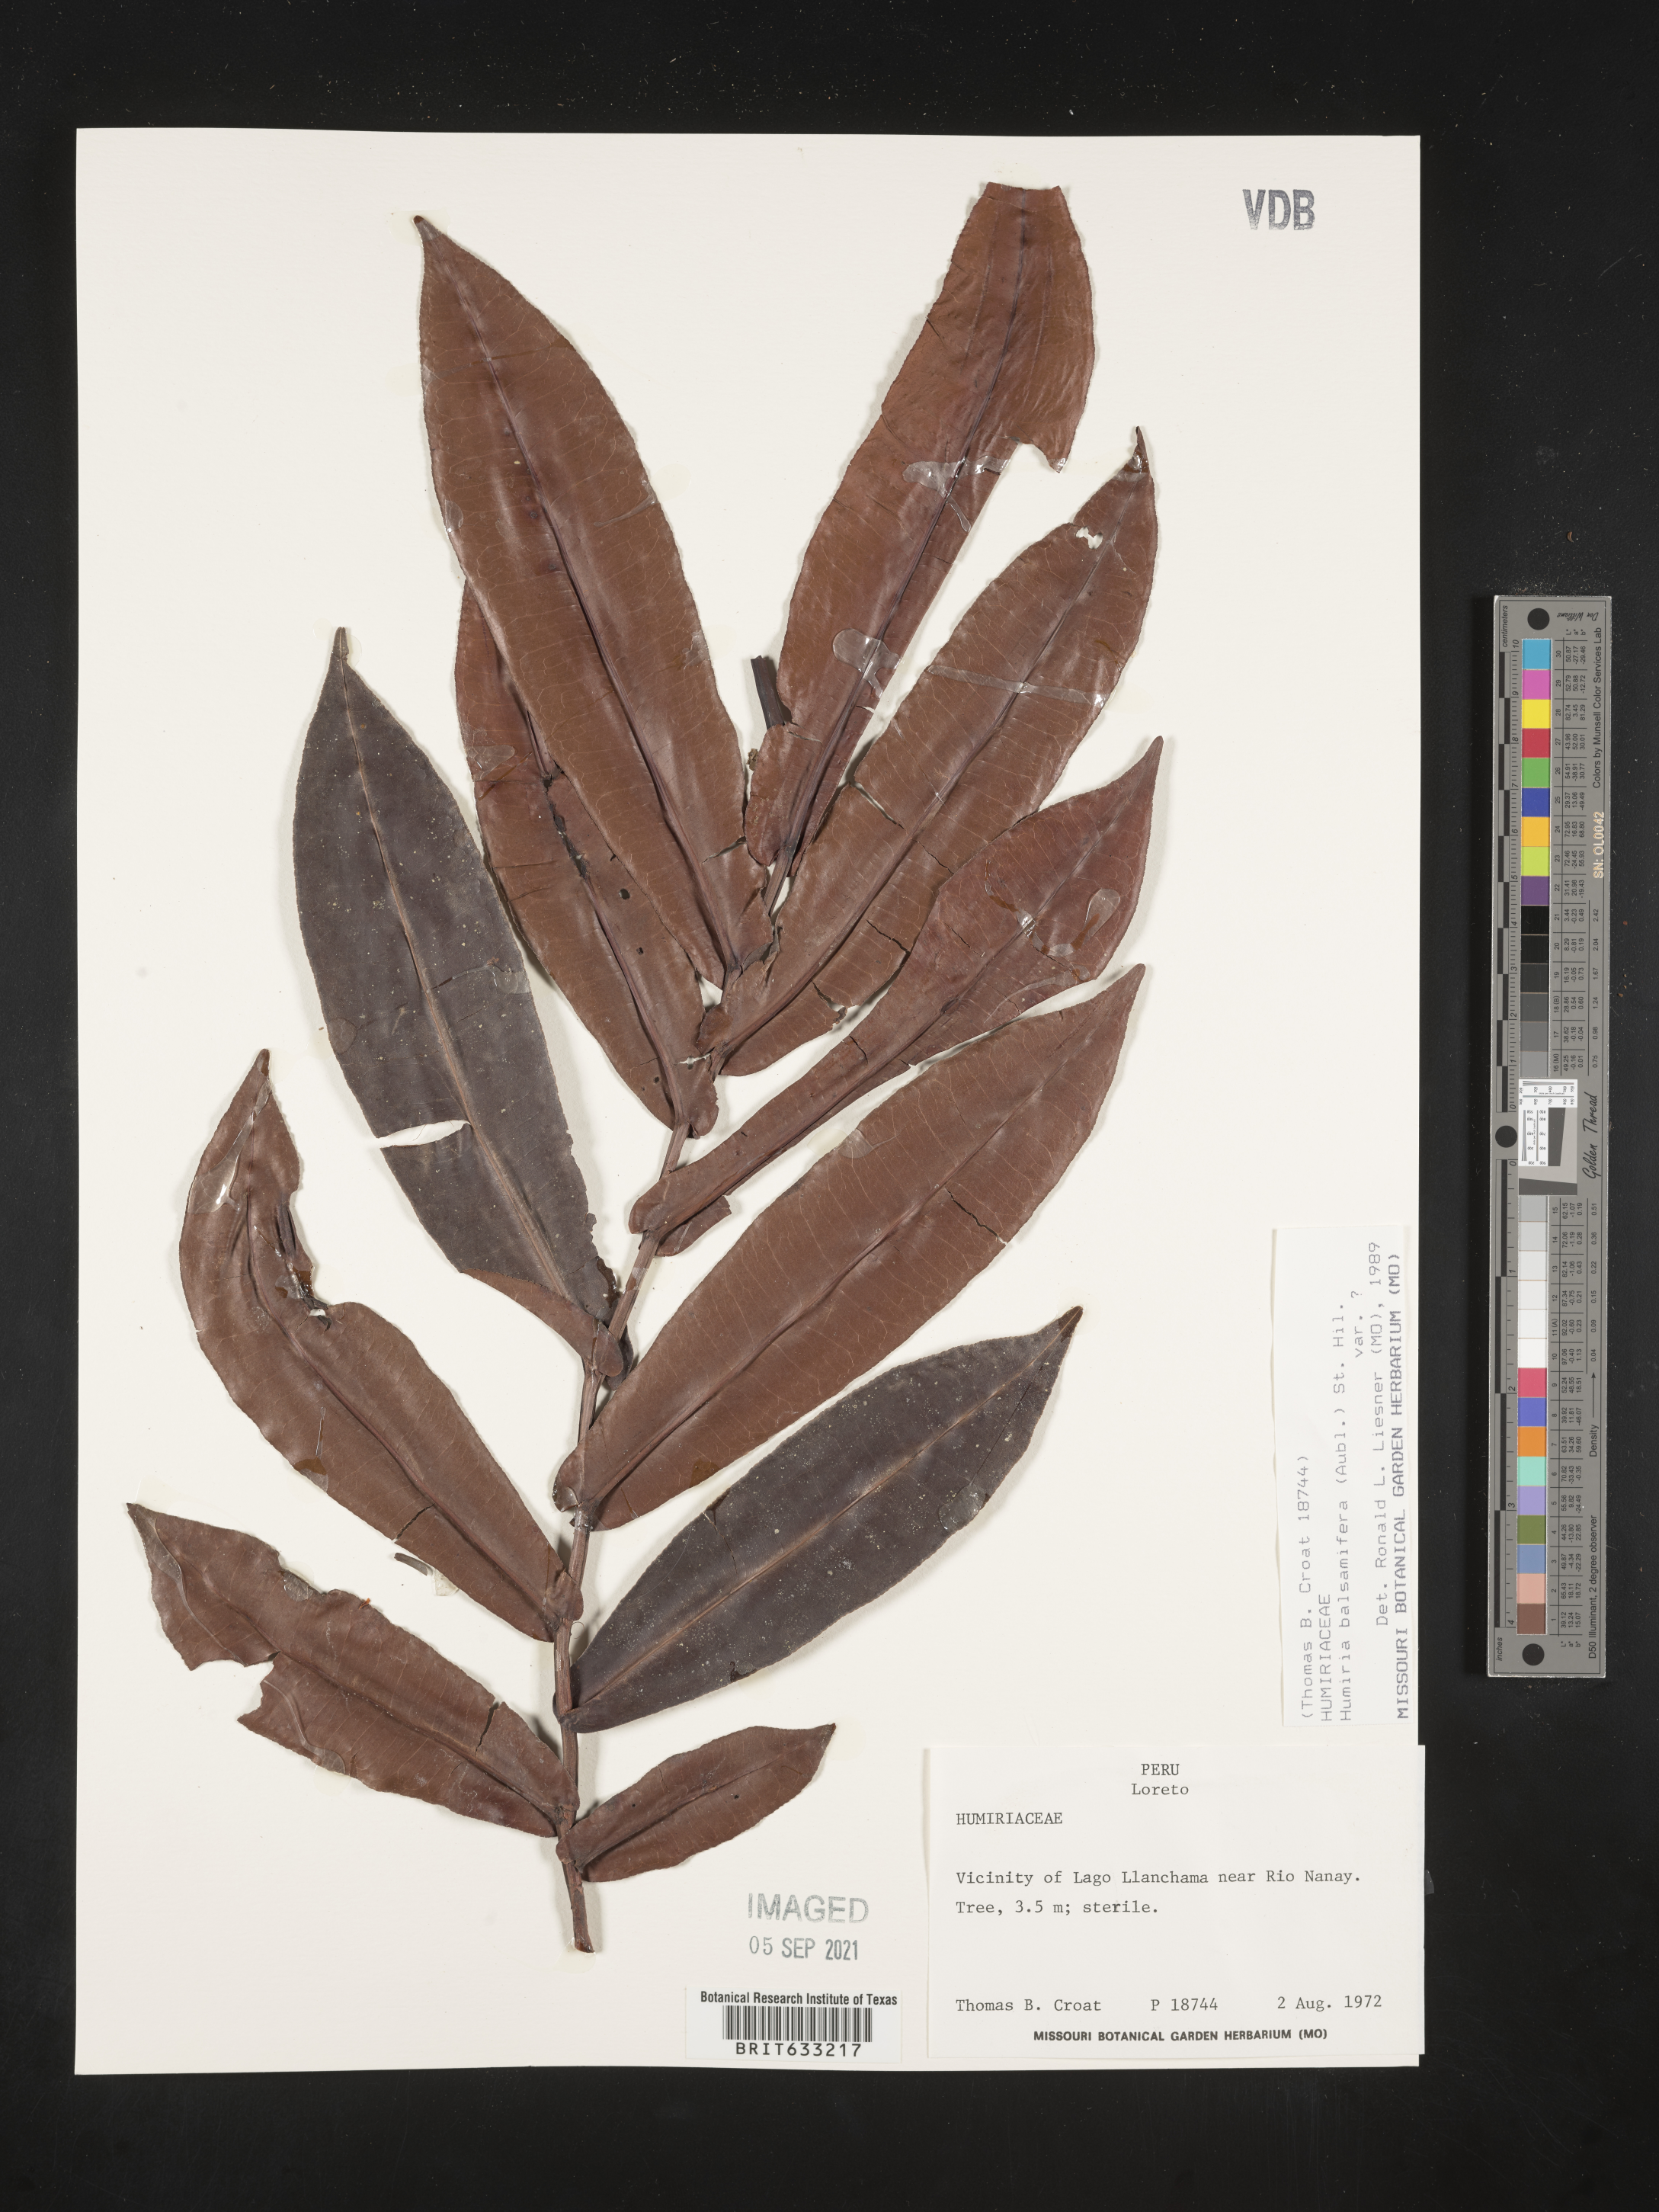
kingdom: Plantae
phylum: Tracheophyta
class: Magnoliopsida
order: Malpighiales
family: Humiriaceae
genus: Humiria
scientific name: Humiria
